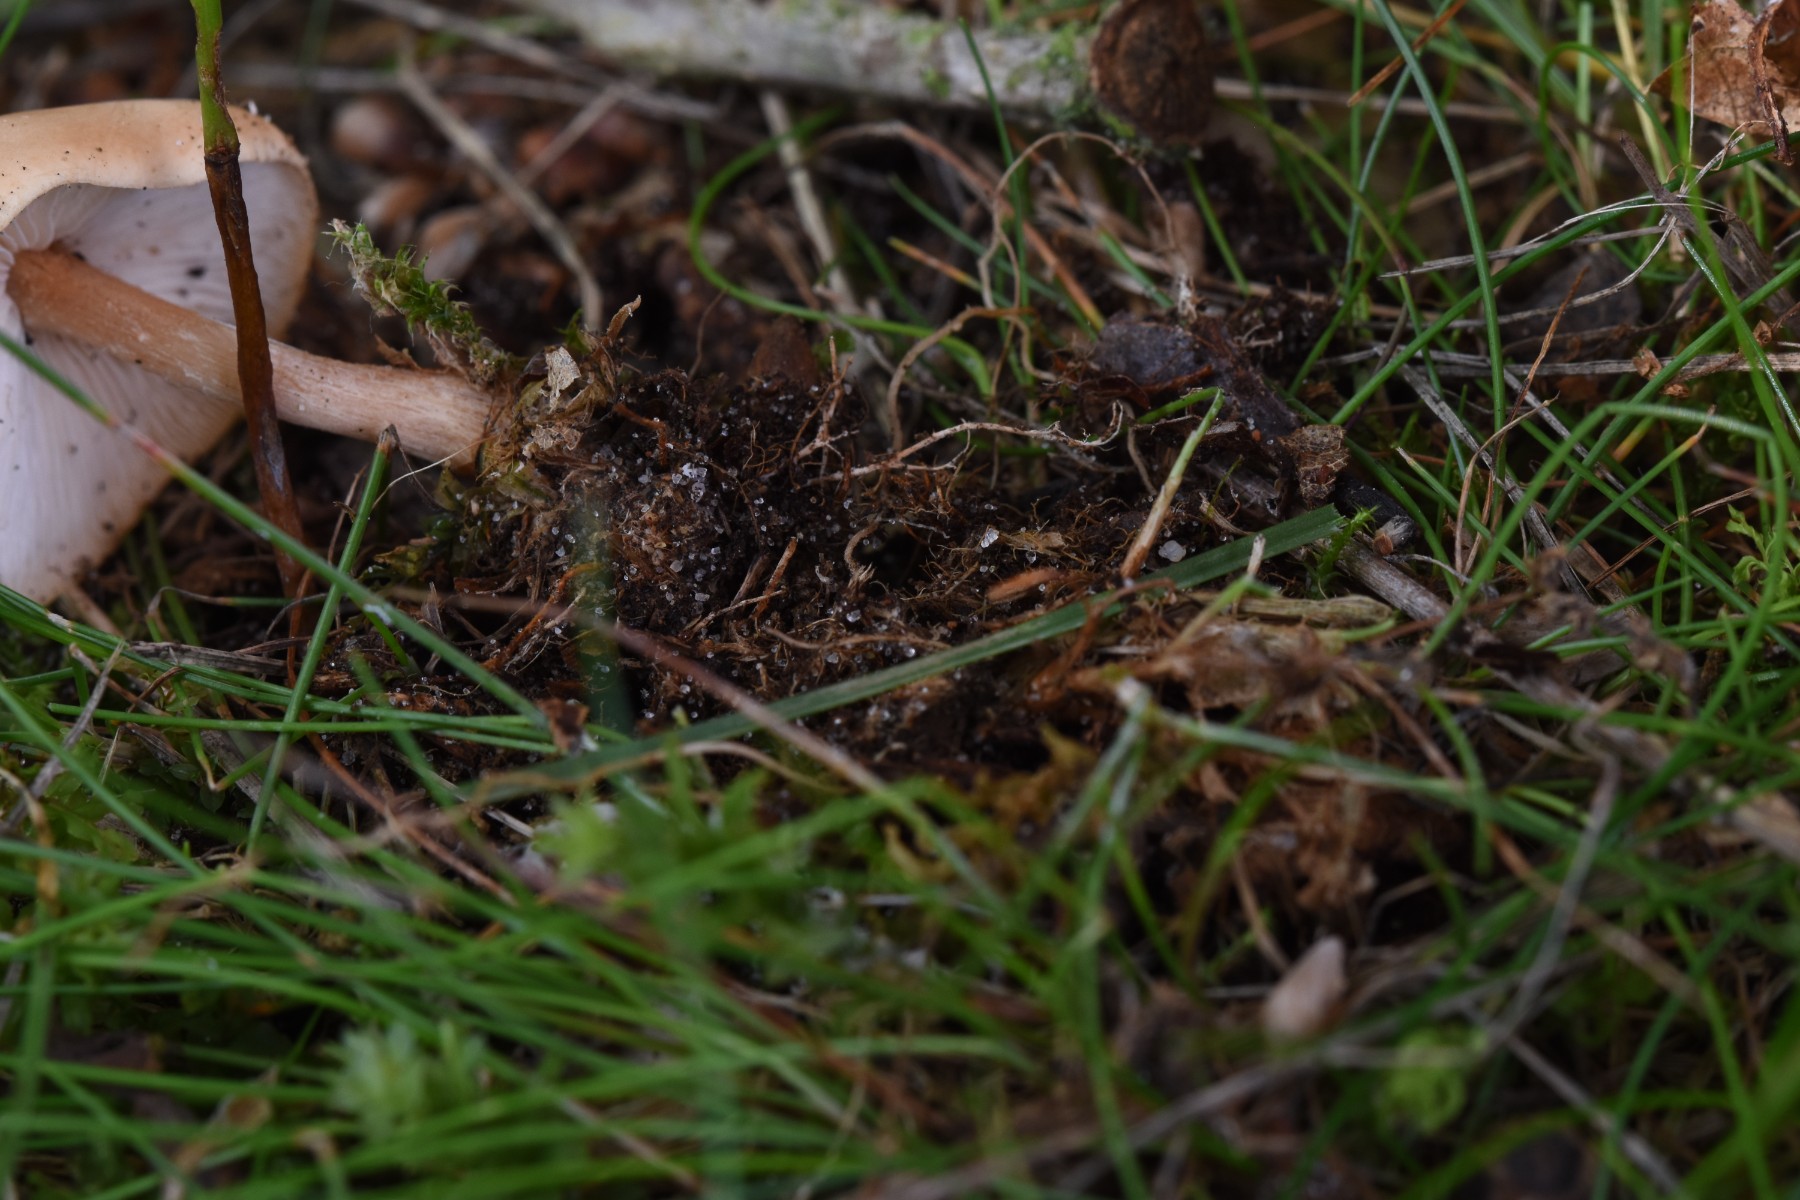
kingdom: Fungi
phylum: Basidiomycota
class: Agaricomycetes
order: Agaricales
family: Omphalotaceae
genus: Gymnopus
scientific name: Gymnopus aquosus
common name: bleg fladhat
